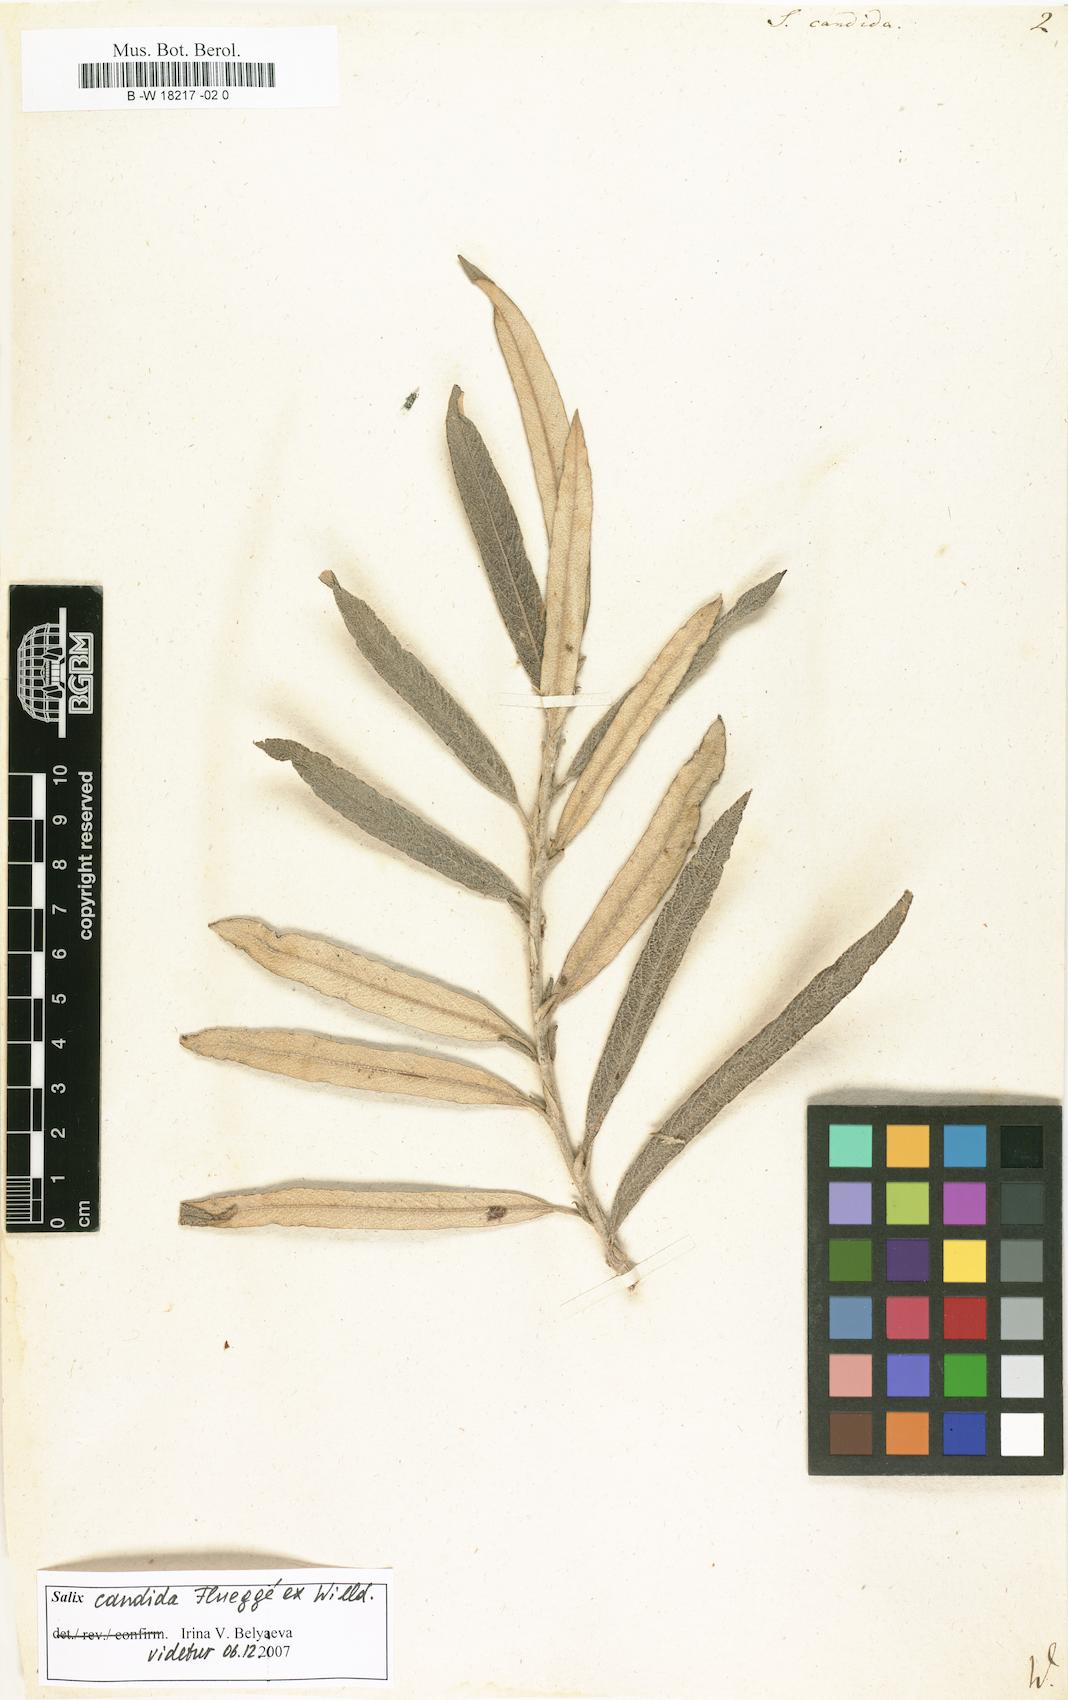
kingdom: Plantae
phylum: Tracheophyta
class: Magnoliopsida
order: Malpighiales
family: Salicaceae
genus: Salix
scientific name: Salix candida
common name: Hoary willow
